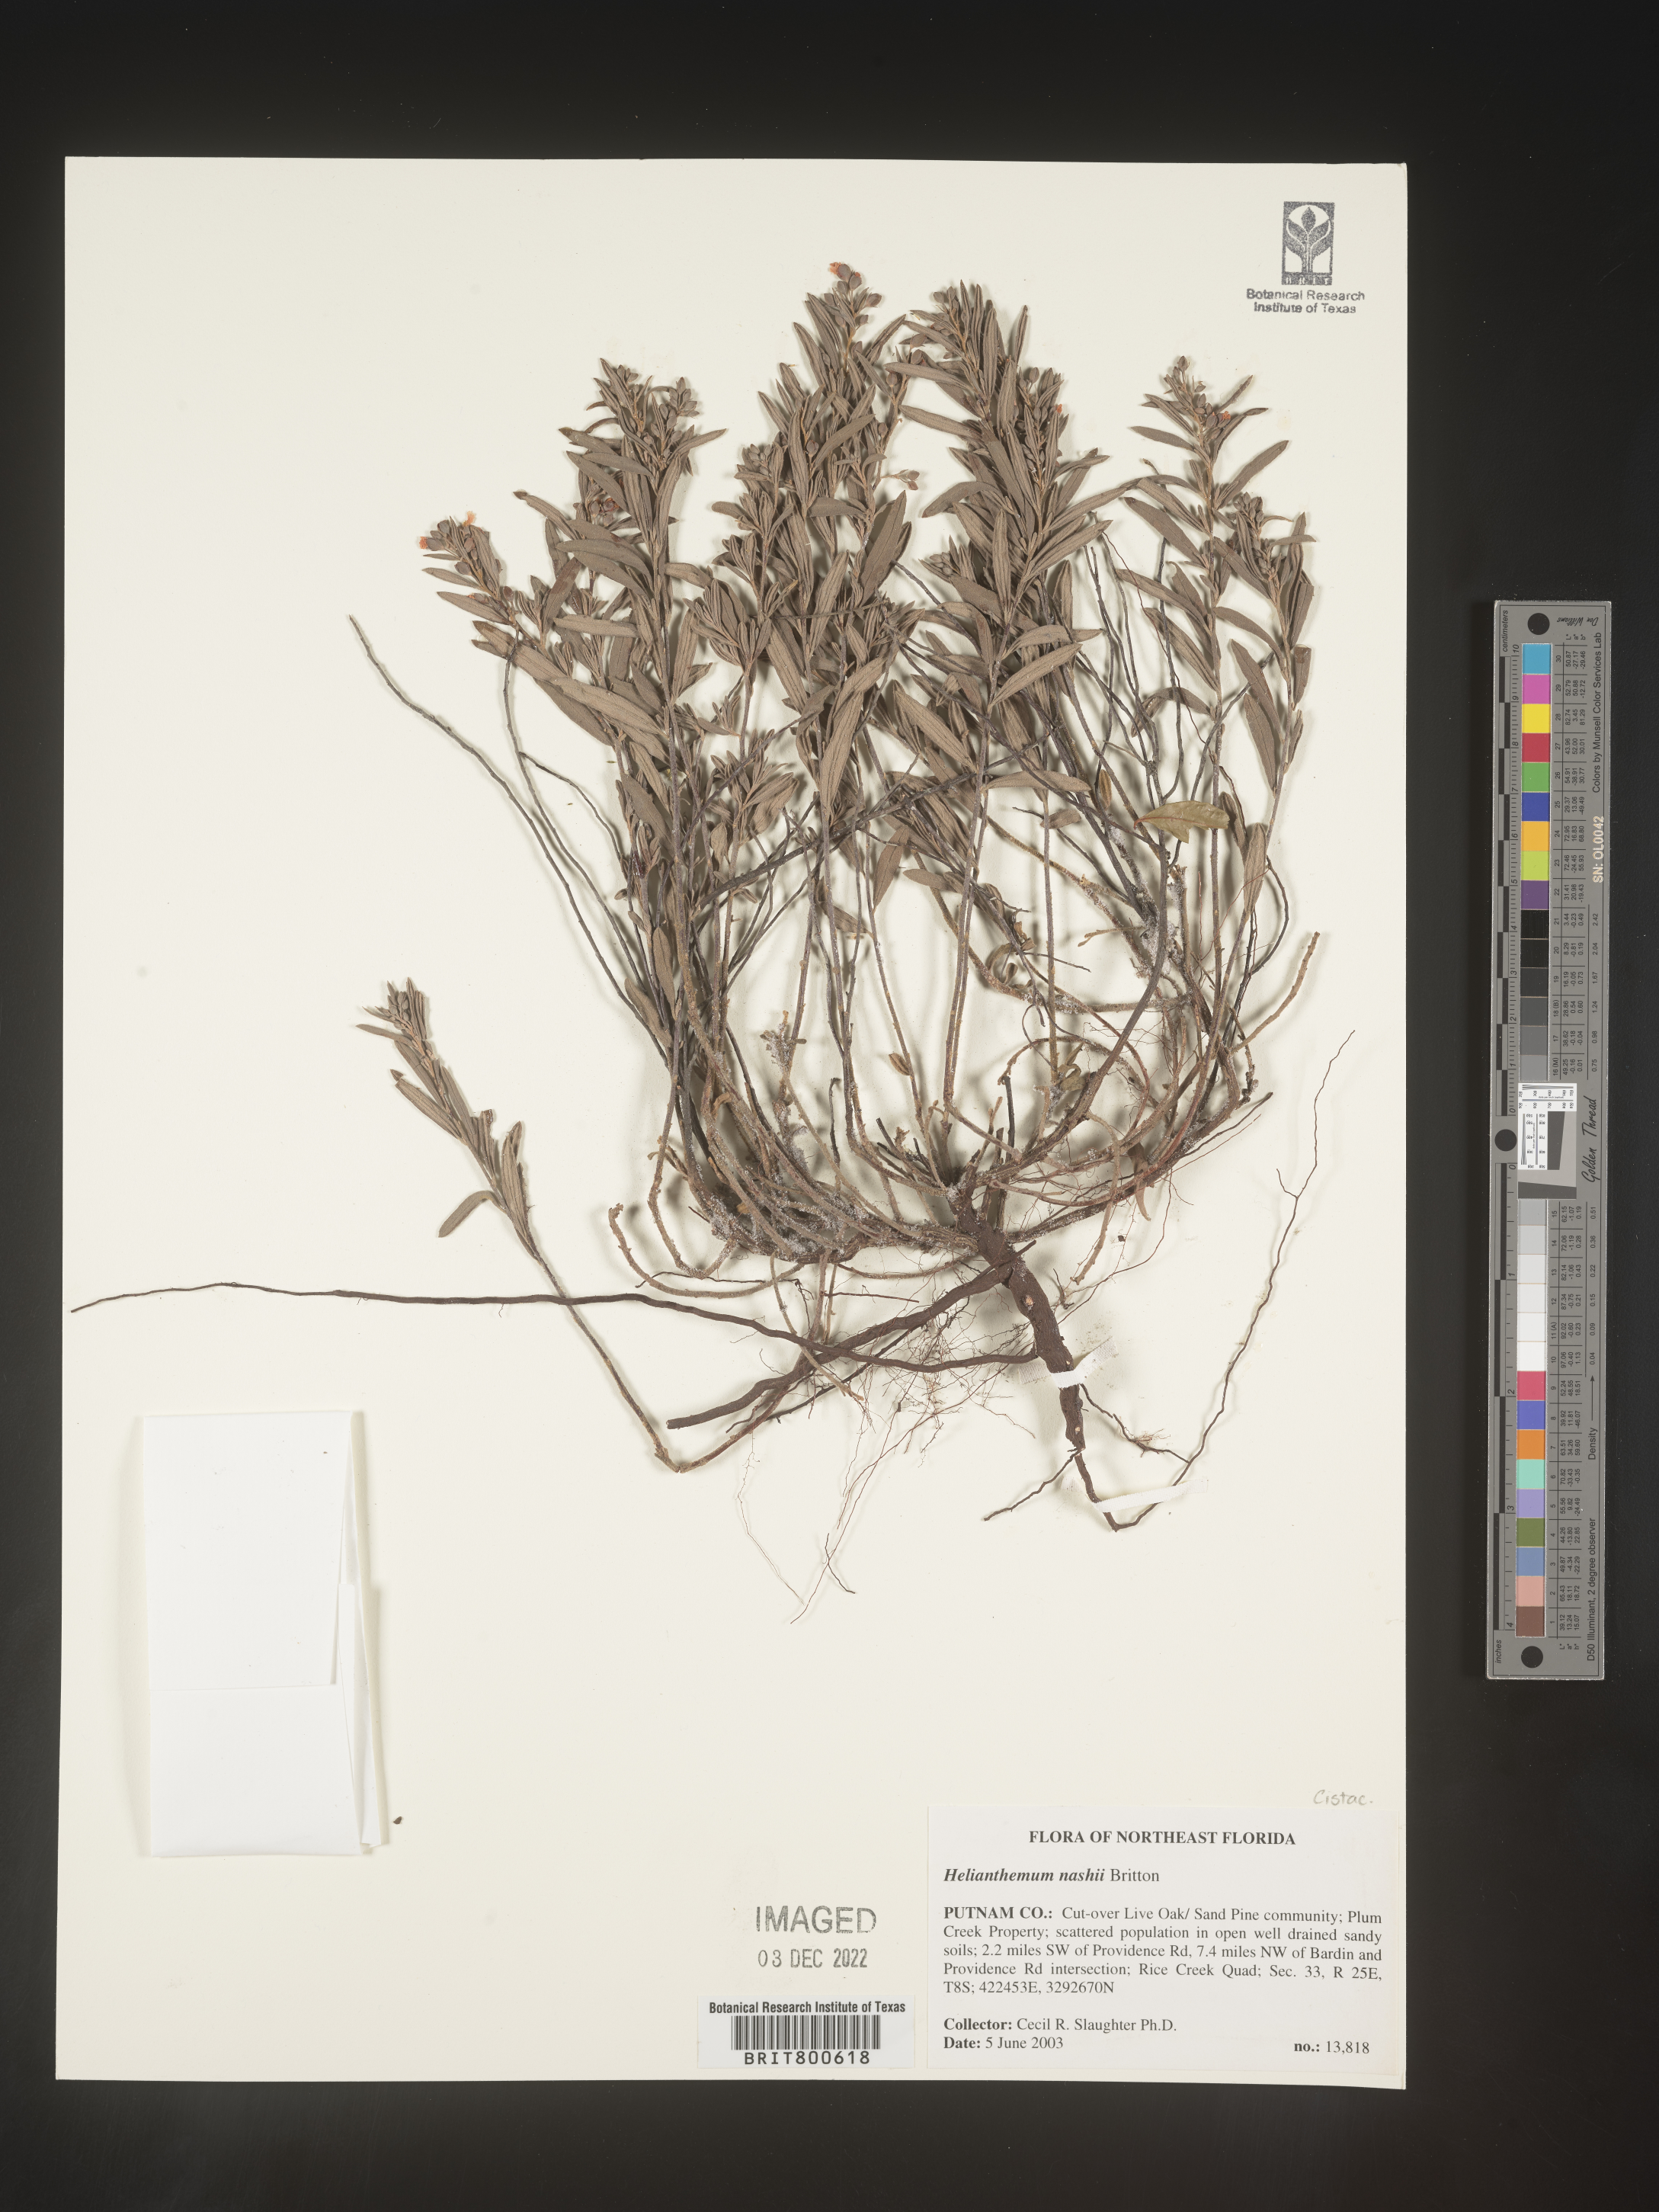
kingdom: Plantae
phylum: Tracheophyta
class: Magnoliopsida
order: Malvales
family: Cistaceae
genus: Helianthemum
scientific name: Helianthemum
